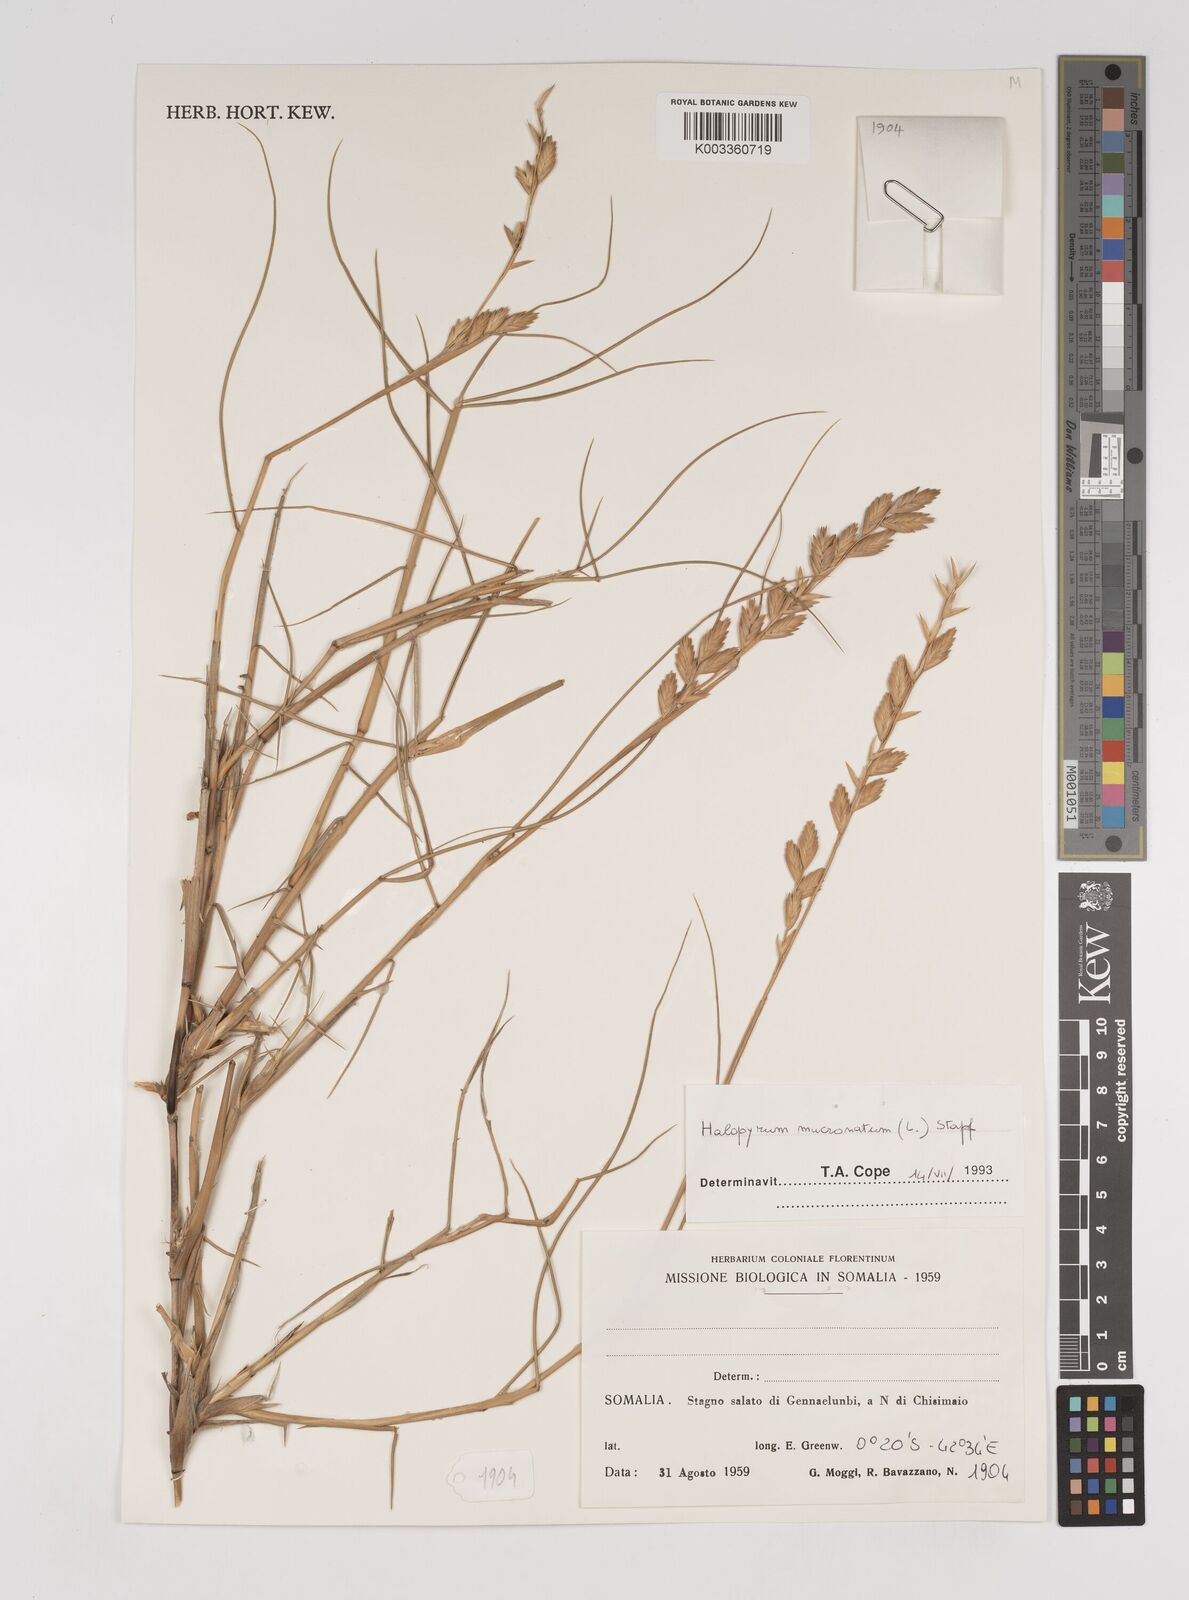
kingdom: Plantae
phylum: Tracheophyta
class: Liliopsida
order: Poales
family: Poaceae
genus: Halopyrum
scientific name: Halopyrum mucronatum
